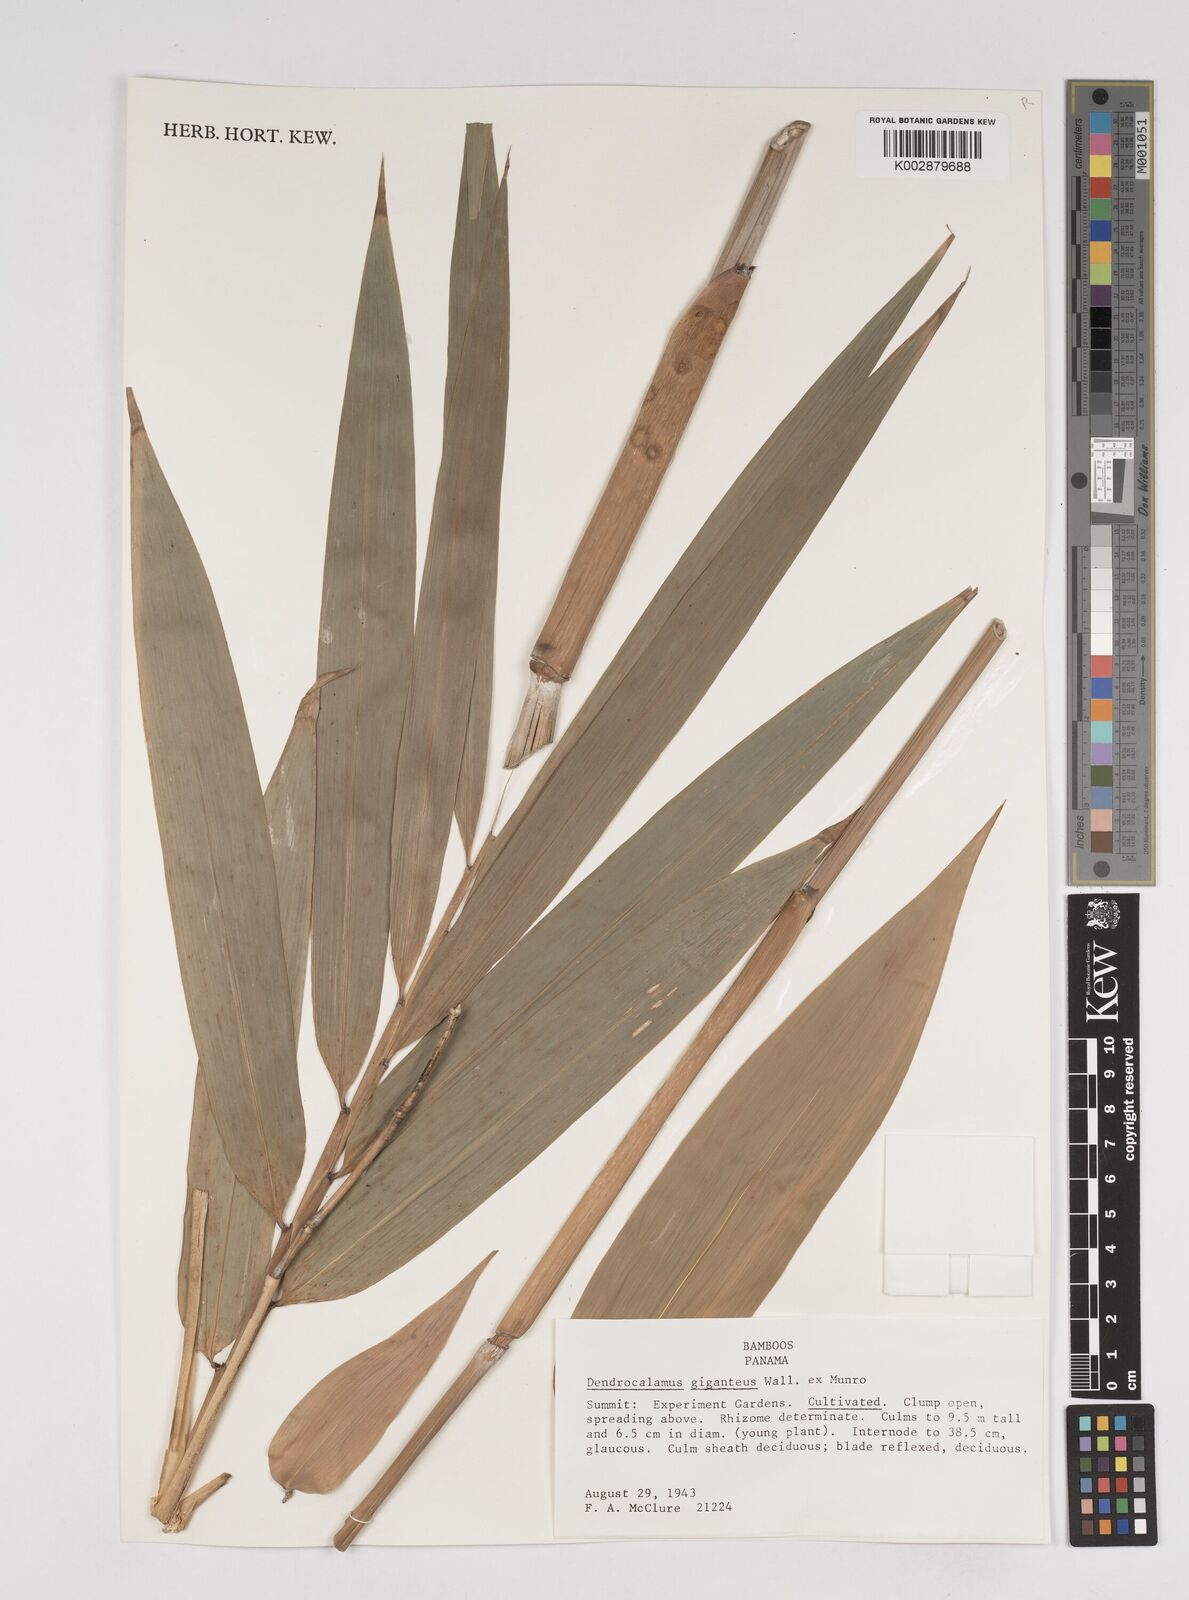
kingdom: Plantae
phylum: Tracheophyta
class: Liliopsida
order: Poales
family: Poaceae
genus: Dendrocalamus
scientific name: Dendrocalamus giganteus
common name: Giant bamboo
